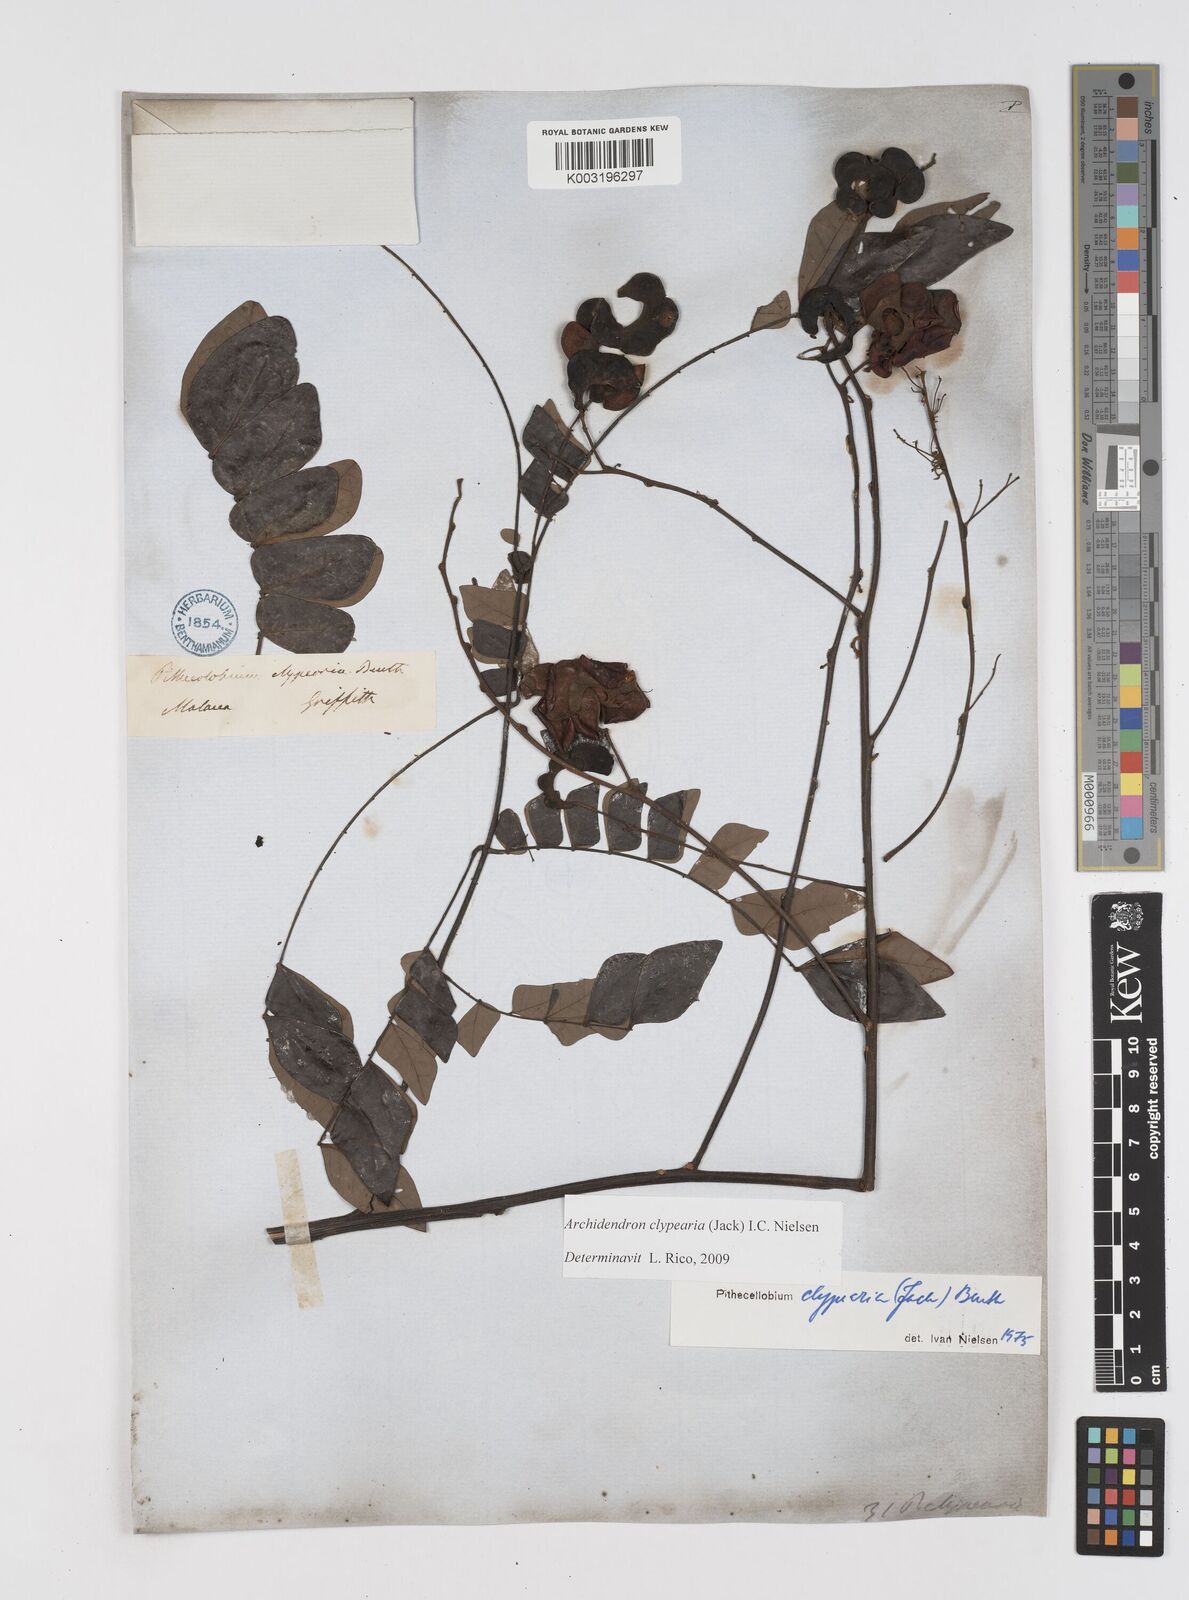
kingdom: Plantae
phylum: Tracheophyta
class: Magnoliopsida
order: Fabales
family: Fabaceae
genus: Archidendron
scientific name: Archidendron clypearia
